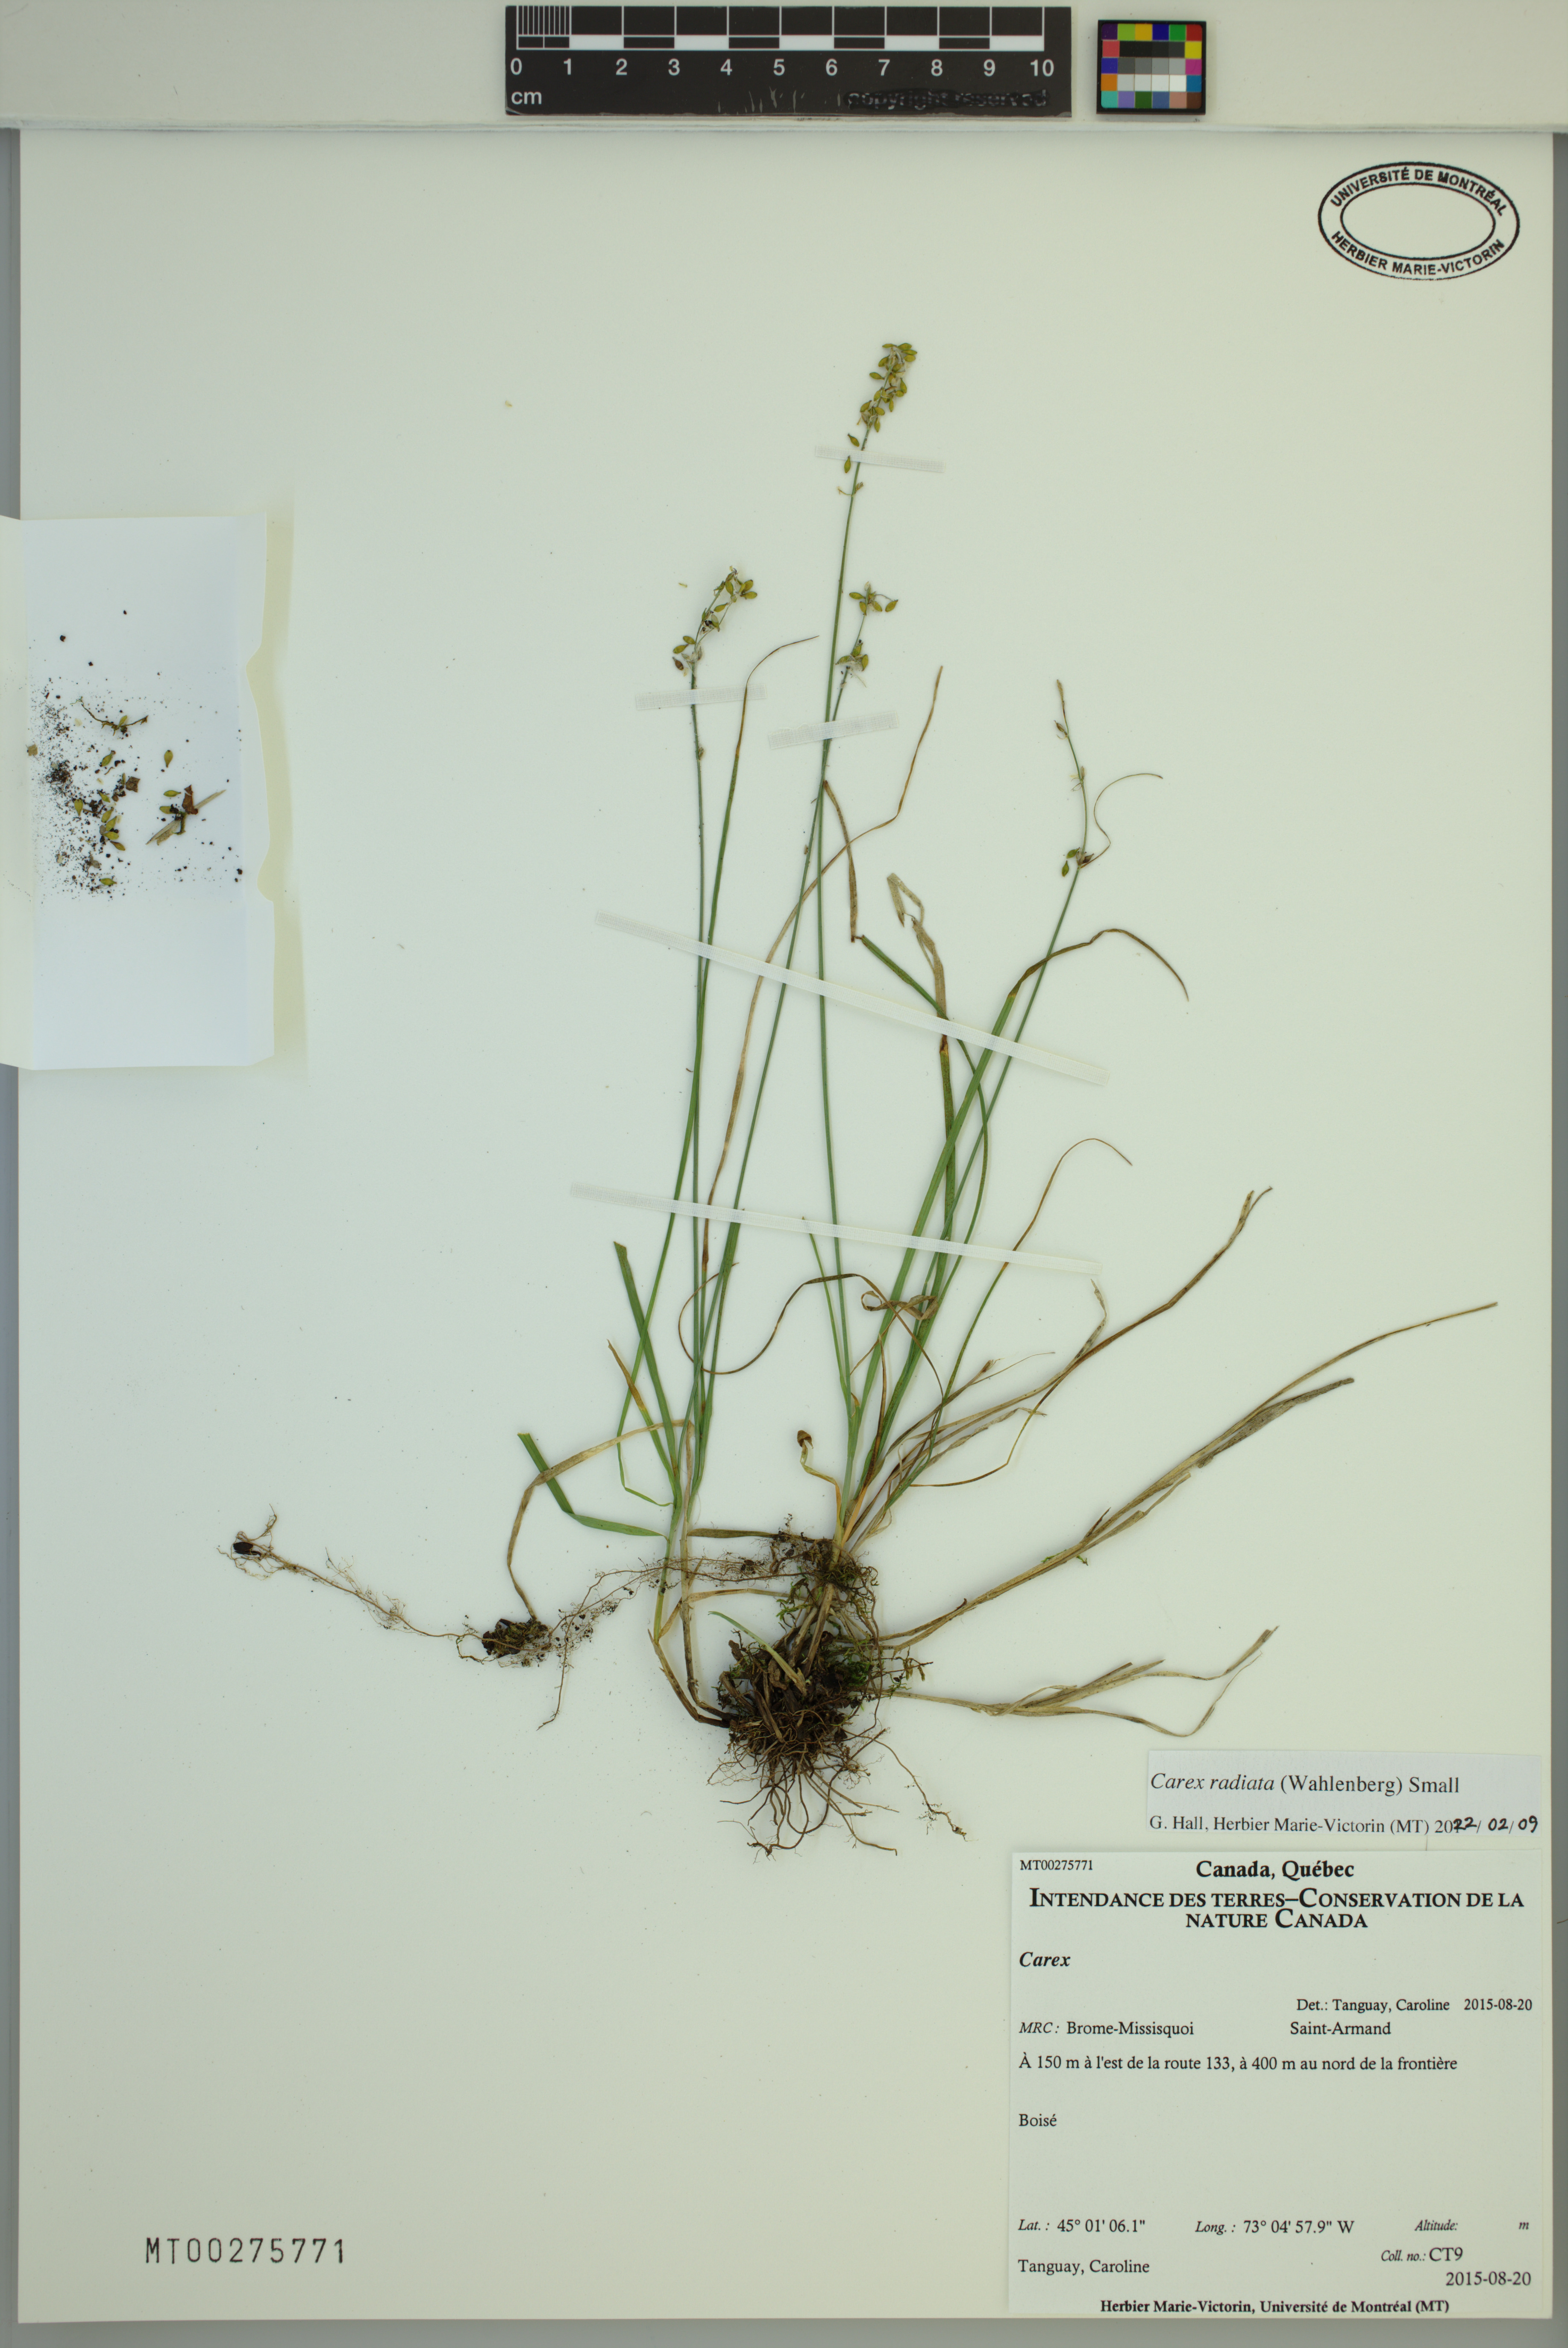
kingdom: Plantae
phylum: Tracheophyta
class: Liliopsida
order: Poales
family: Cyperaceae
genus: Carex
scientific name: Carex radiata
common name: Eastern star sedge
